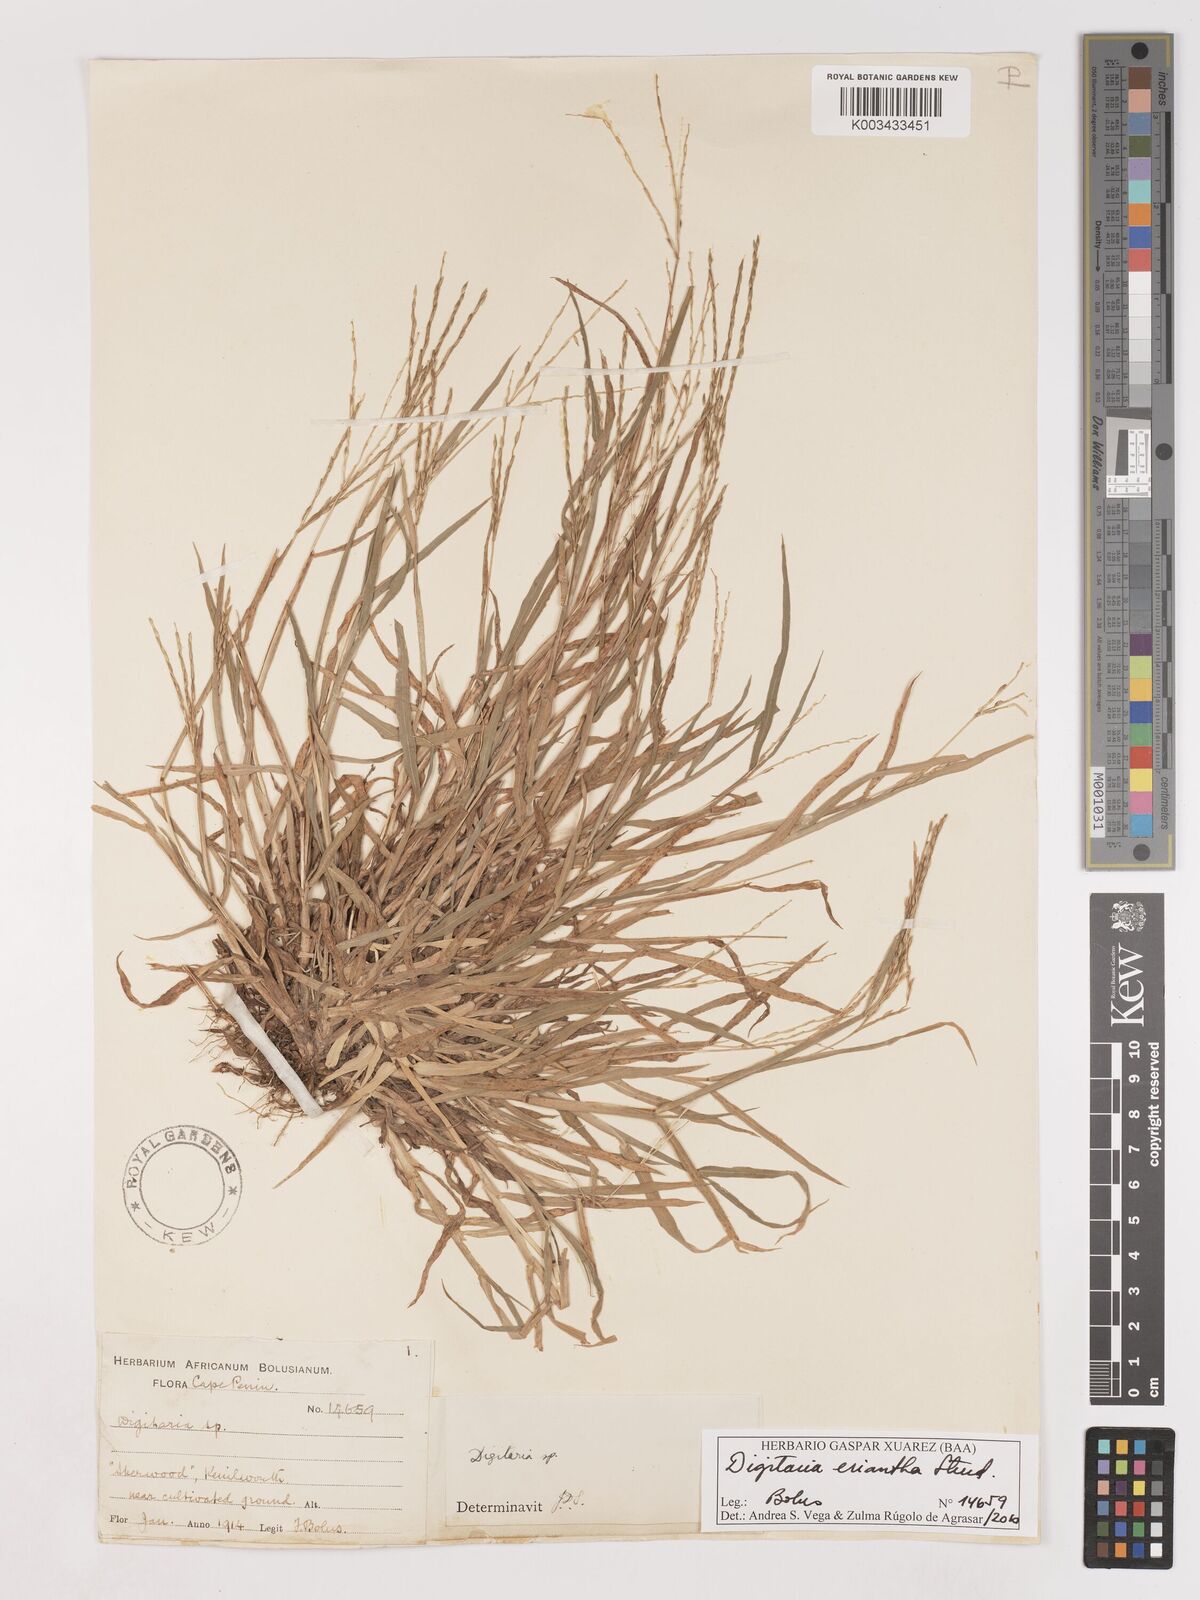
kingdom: Plantae
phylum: Tracheophyta
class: Liliopsida
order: Poales
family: Poaceae
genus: Digitaria
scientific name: Digitaria eriantha
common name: Digitgrass
